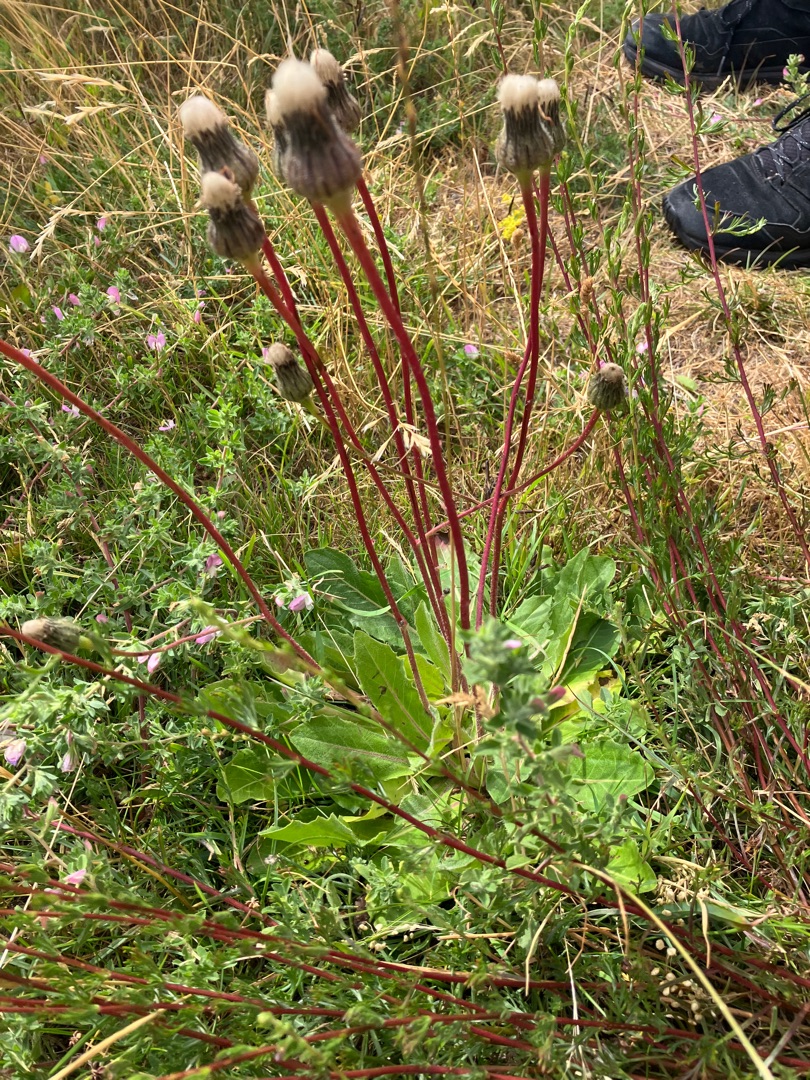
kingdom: Plantae
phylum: Tracheophyta
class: Magnoliopsida
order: Asterales
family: Asteraceae
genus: Trommsdorffia
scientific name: Trommsdorffia maculata
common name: Plettet kongepen
